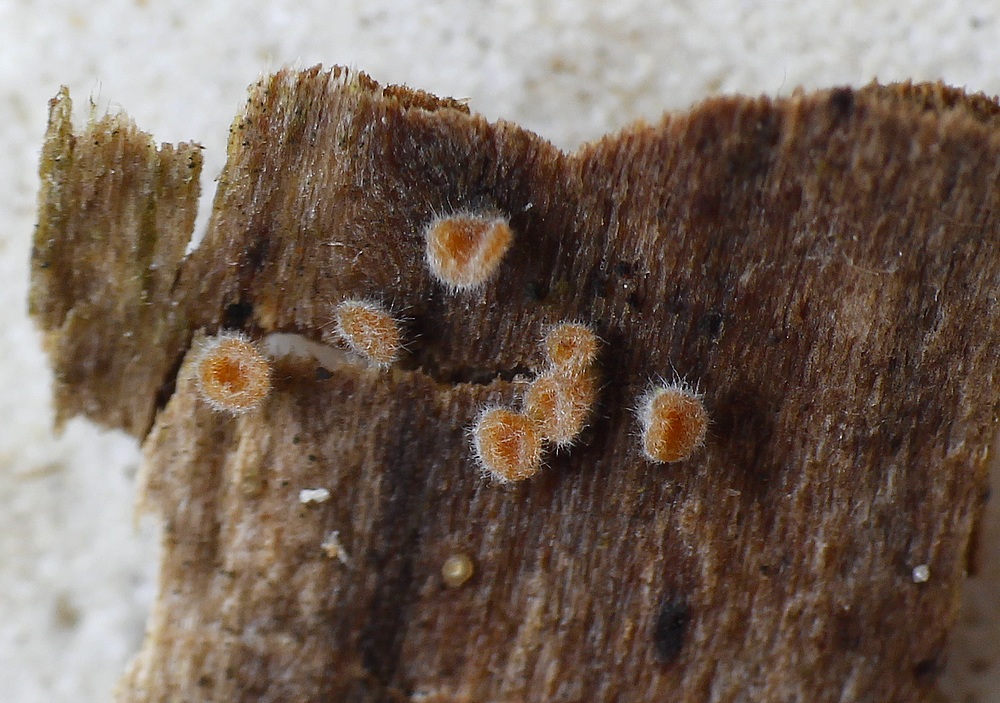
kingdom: Fungi
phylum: Ascomycota
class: Sordariomycetes
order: Microascales
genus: Chalara
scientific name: Chalara
